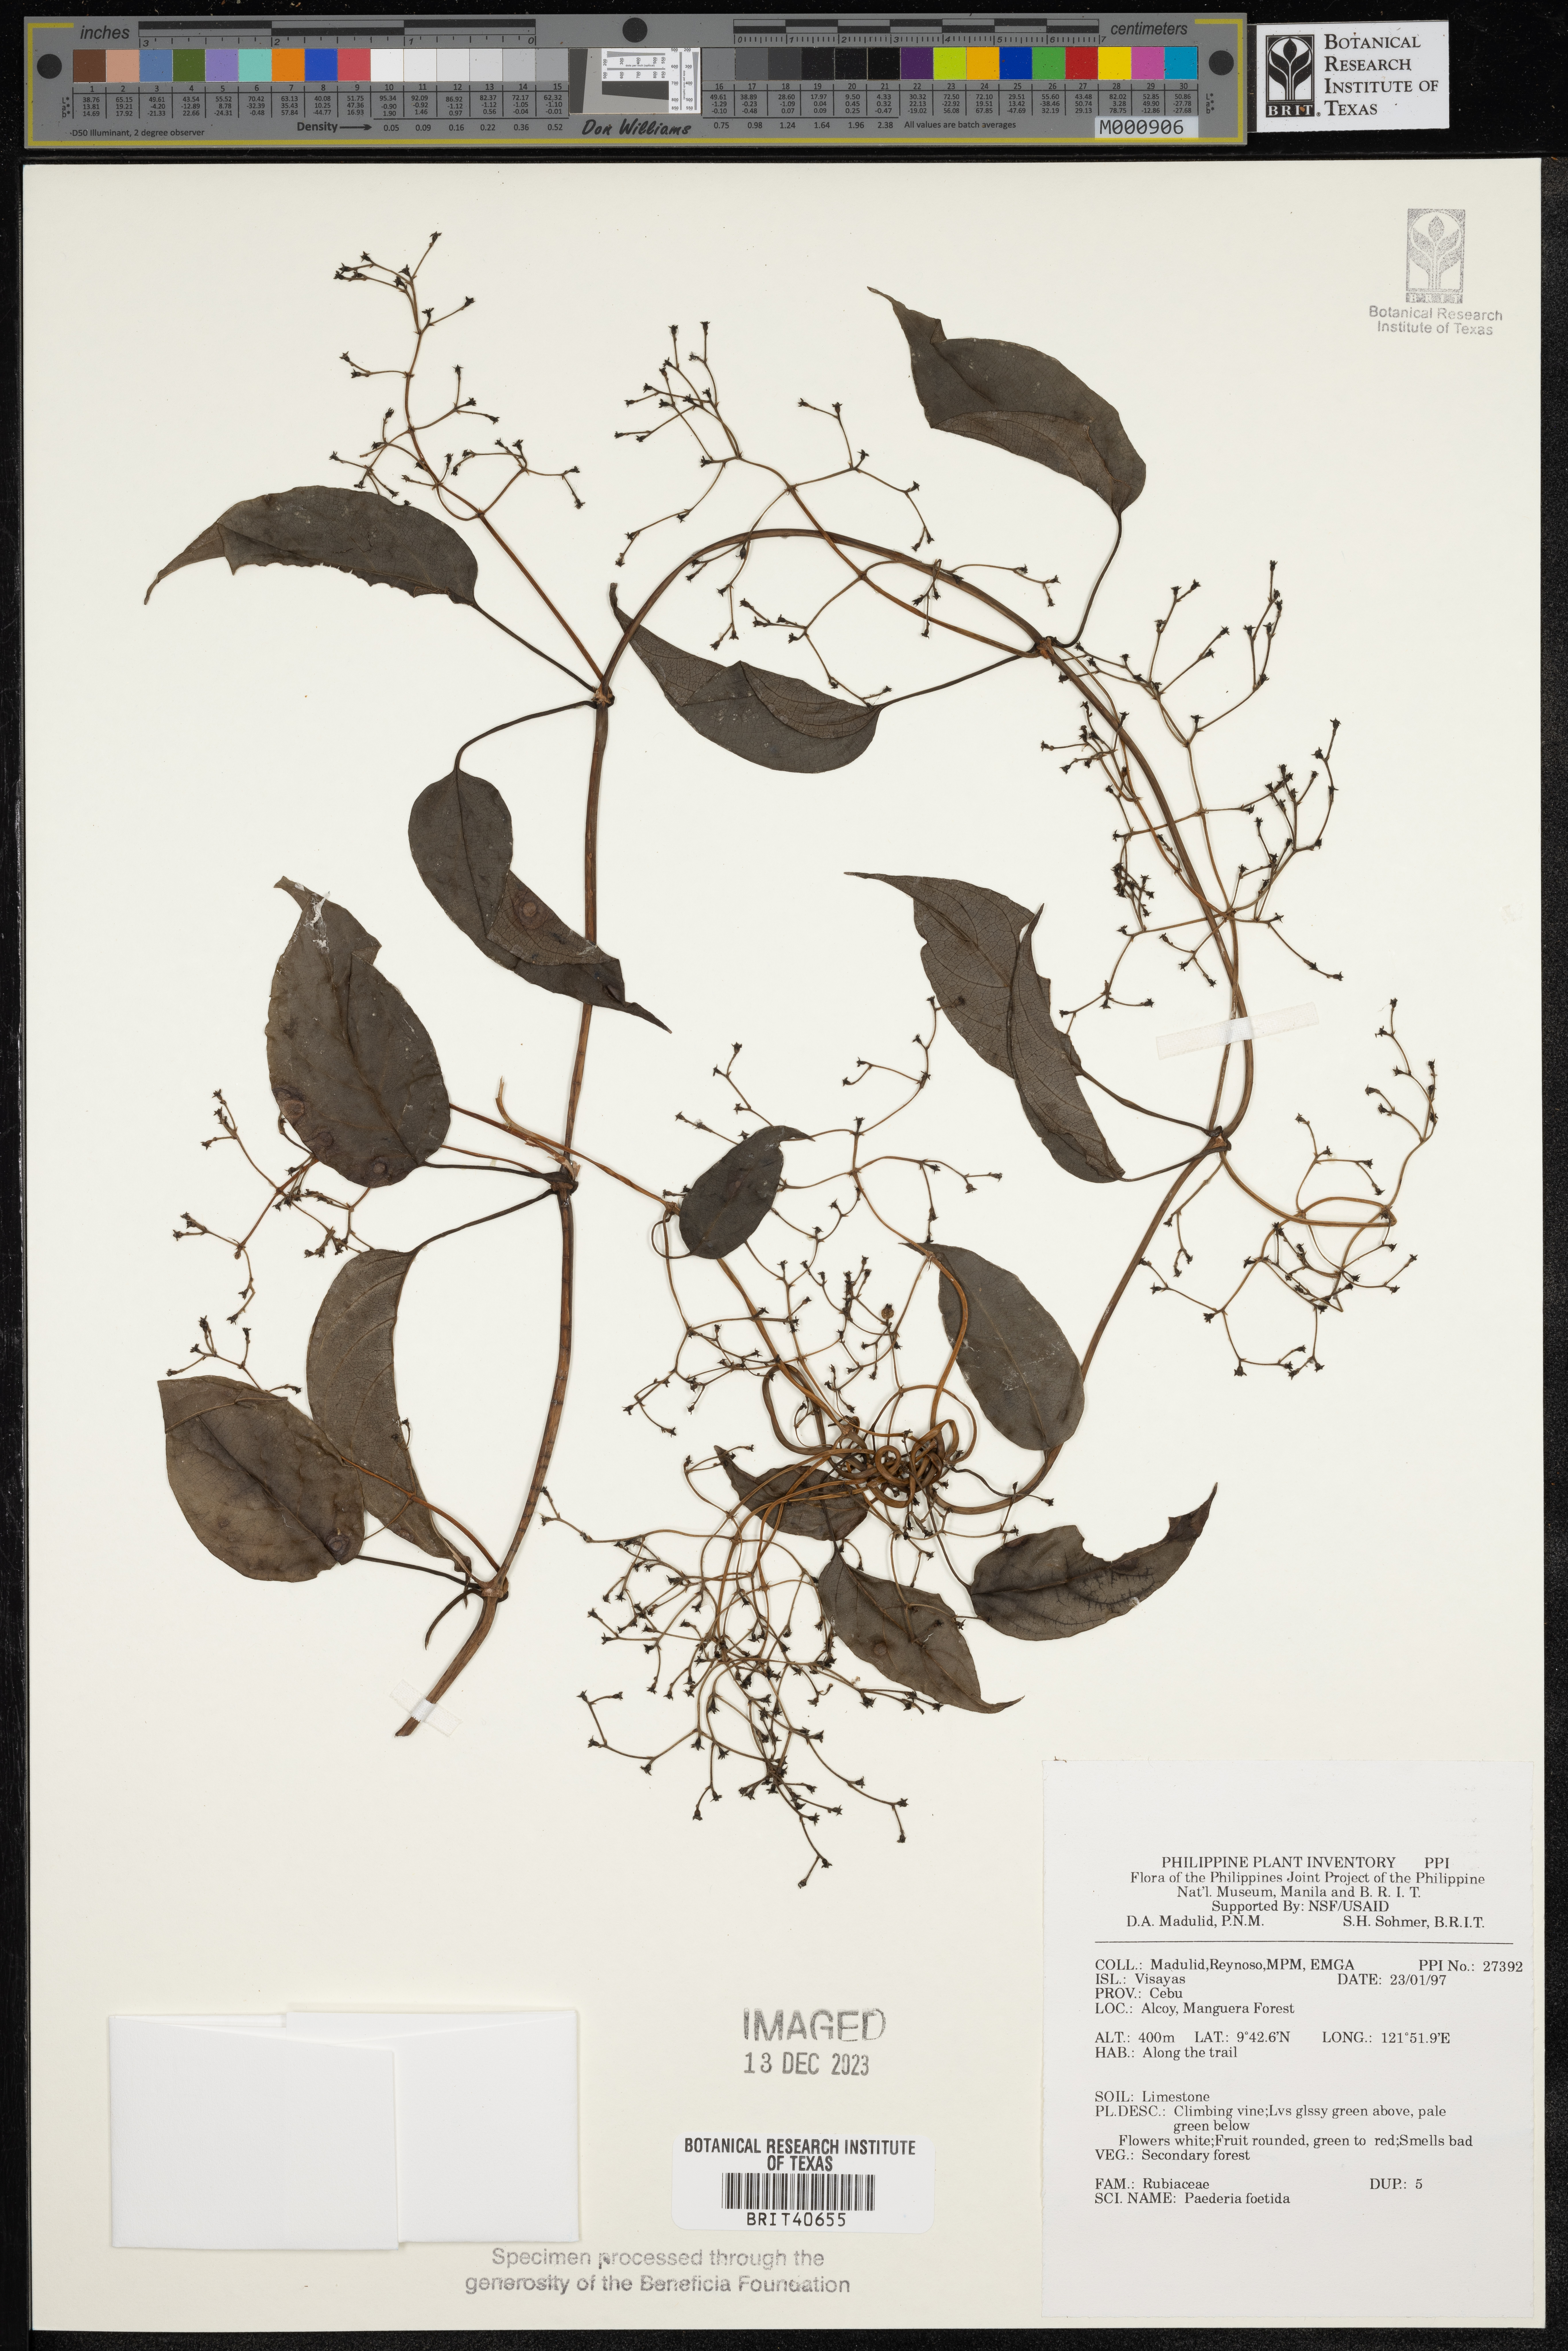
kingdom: Plantae
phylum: Tracheophyta
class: Magnoliopsida
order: Gentianales
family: Rubiaceae
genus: Paederia
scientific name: Paederia foetida
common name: Stinkvine
